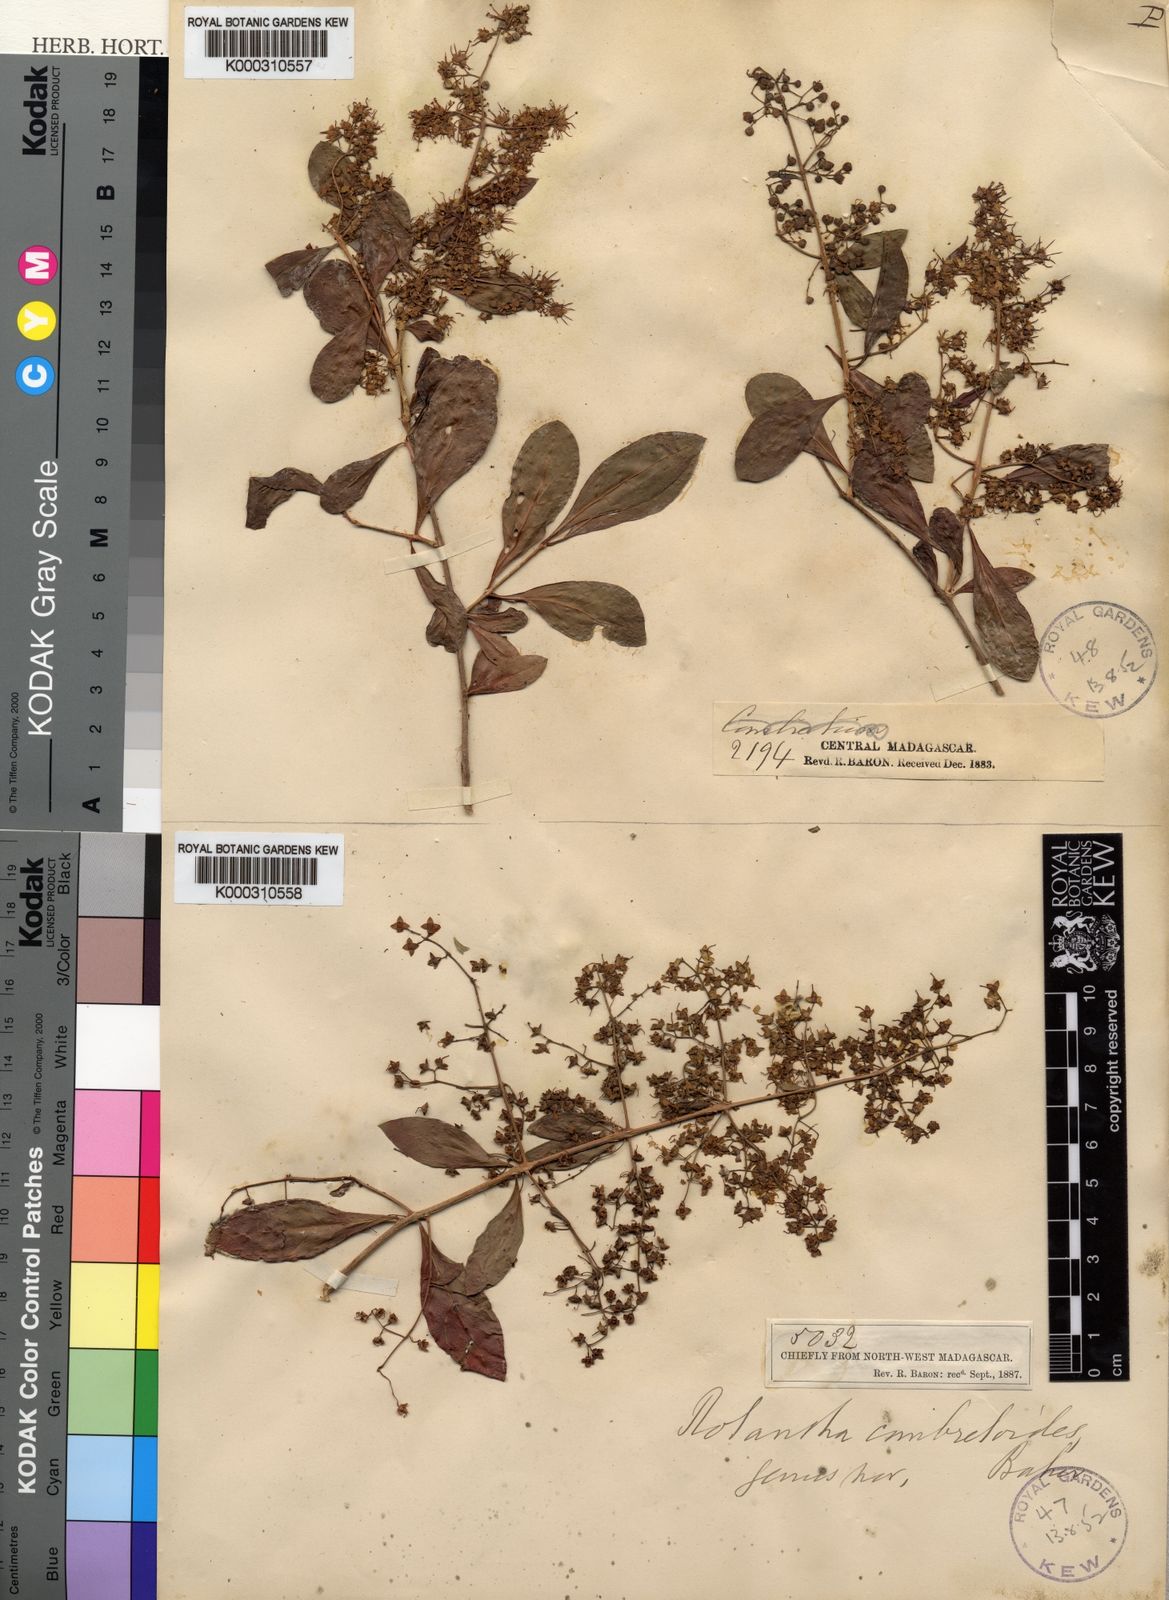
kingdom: Plantae
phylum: Tracheophyta
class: Magnoliopsida
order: Myrtales
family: Lythraceae
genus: Lawsonia
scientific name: Lawsonia
